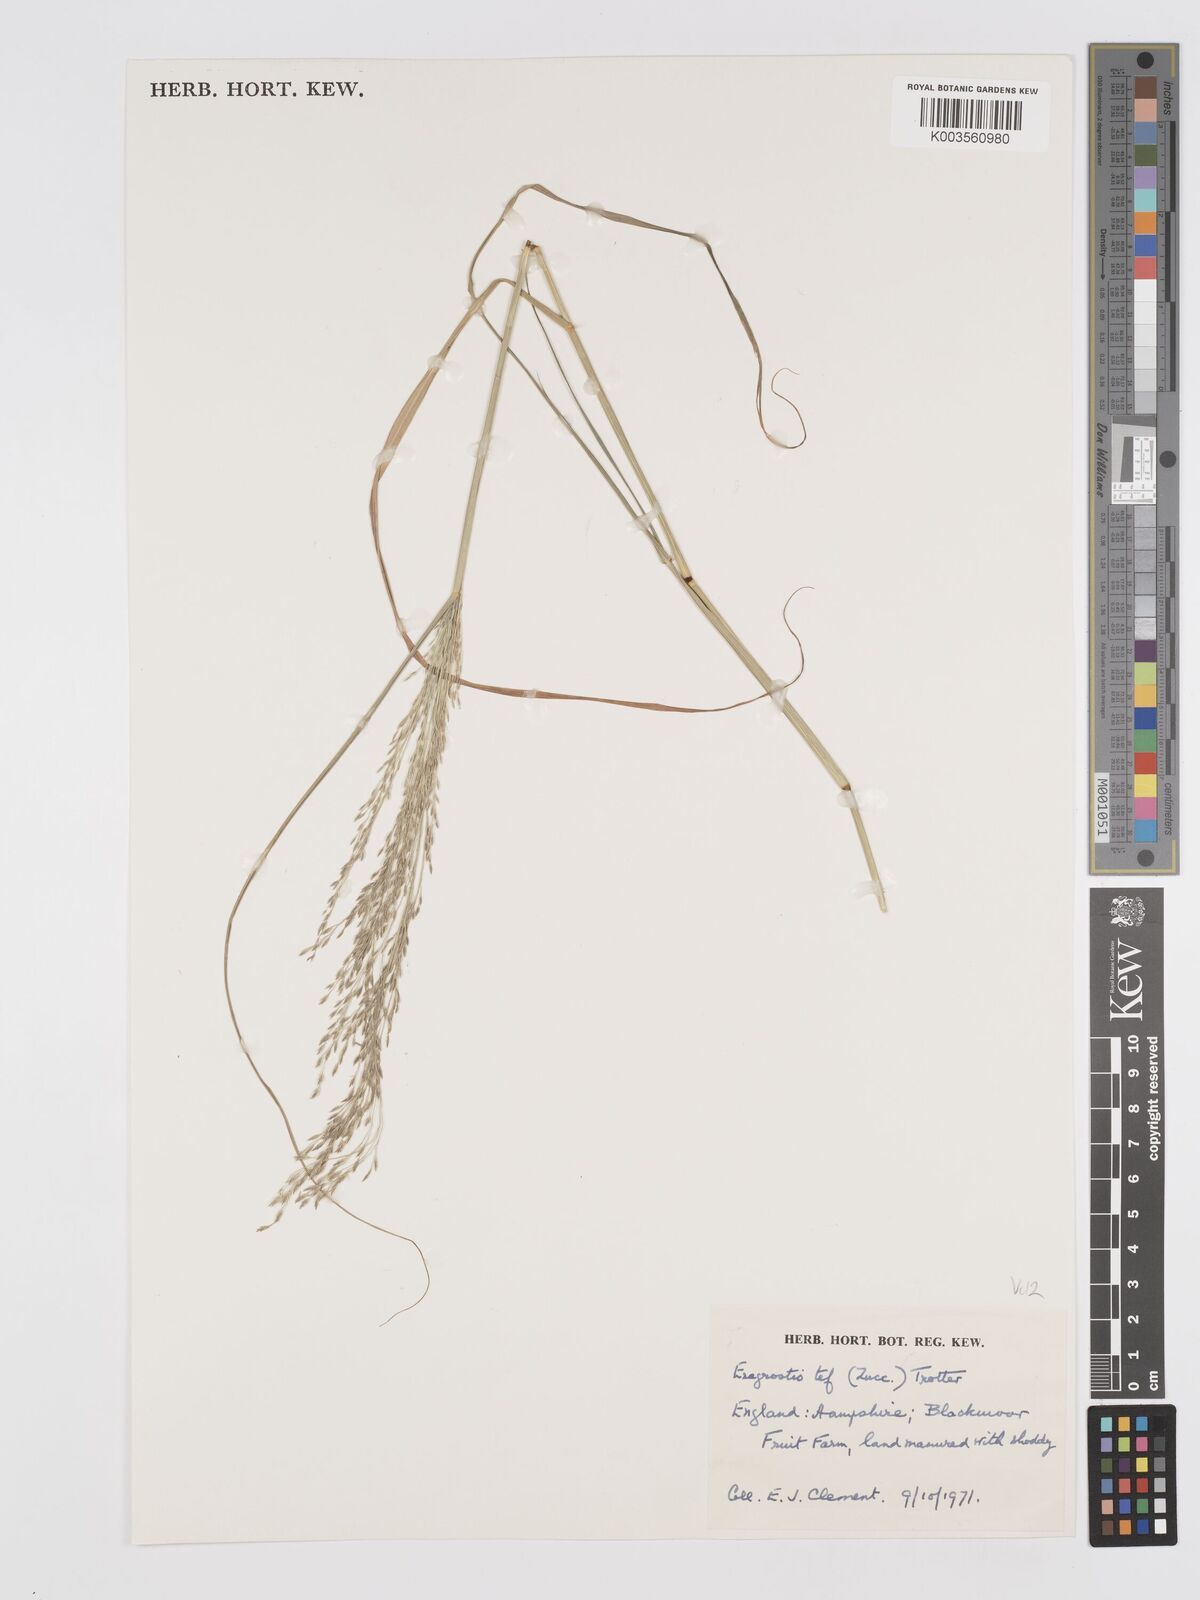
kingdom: Plantae
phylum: Tracheophyta
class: Liliopsida
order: Poales
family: Poaceae
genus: Eragrostis
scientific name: Eragrostis tef
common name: Teff
